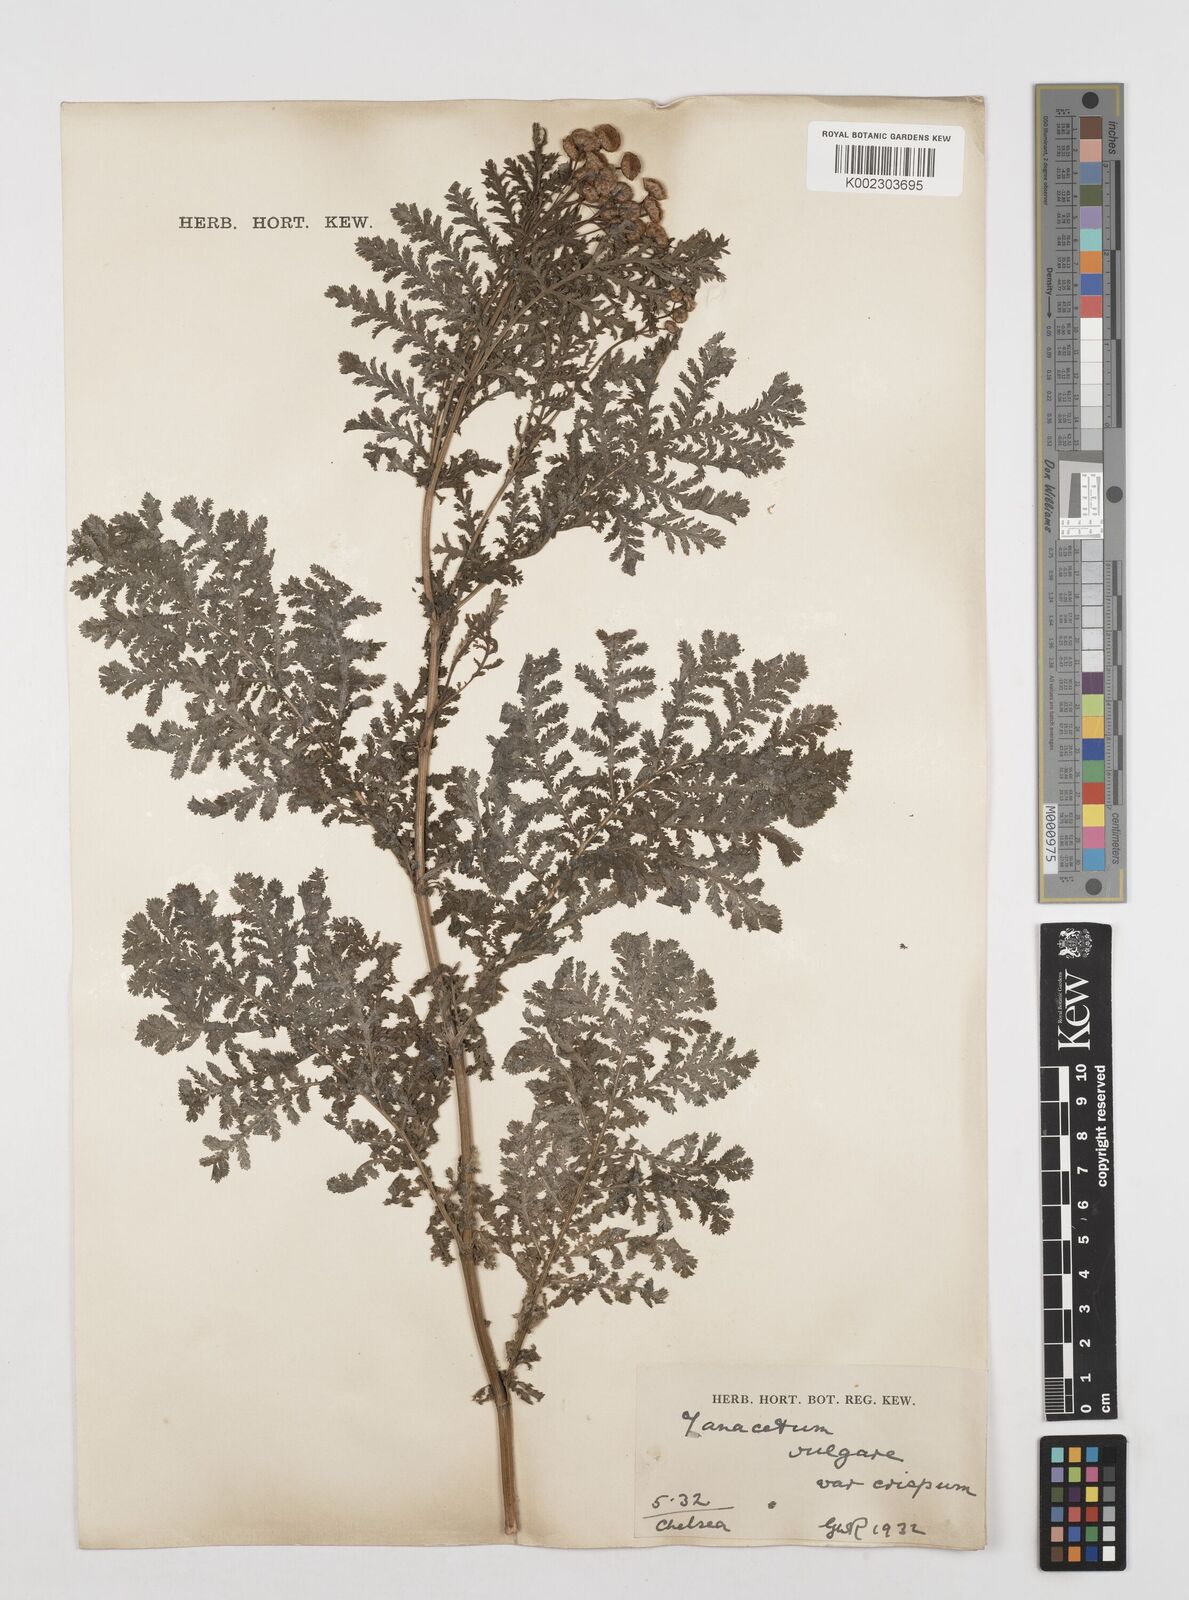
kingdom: Plantae
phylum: Tracheophyta
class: Magnoliopsida
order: Asterales
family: Asteraceae
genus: Tanacetum
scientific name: Tanacetum vulgare
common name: Common tansy
